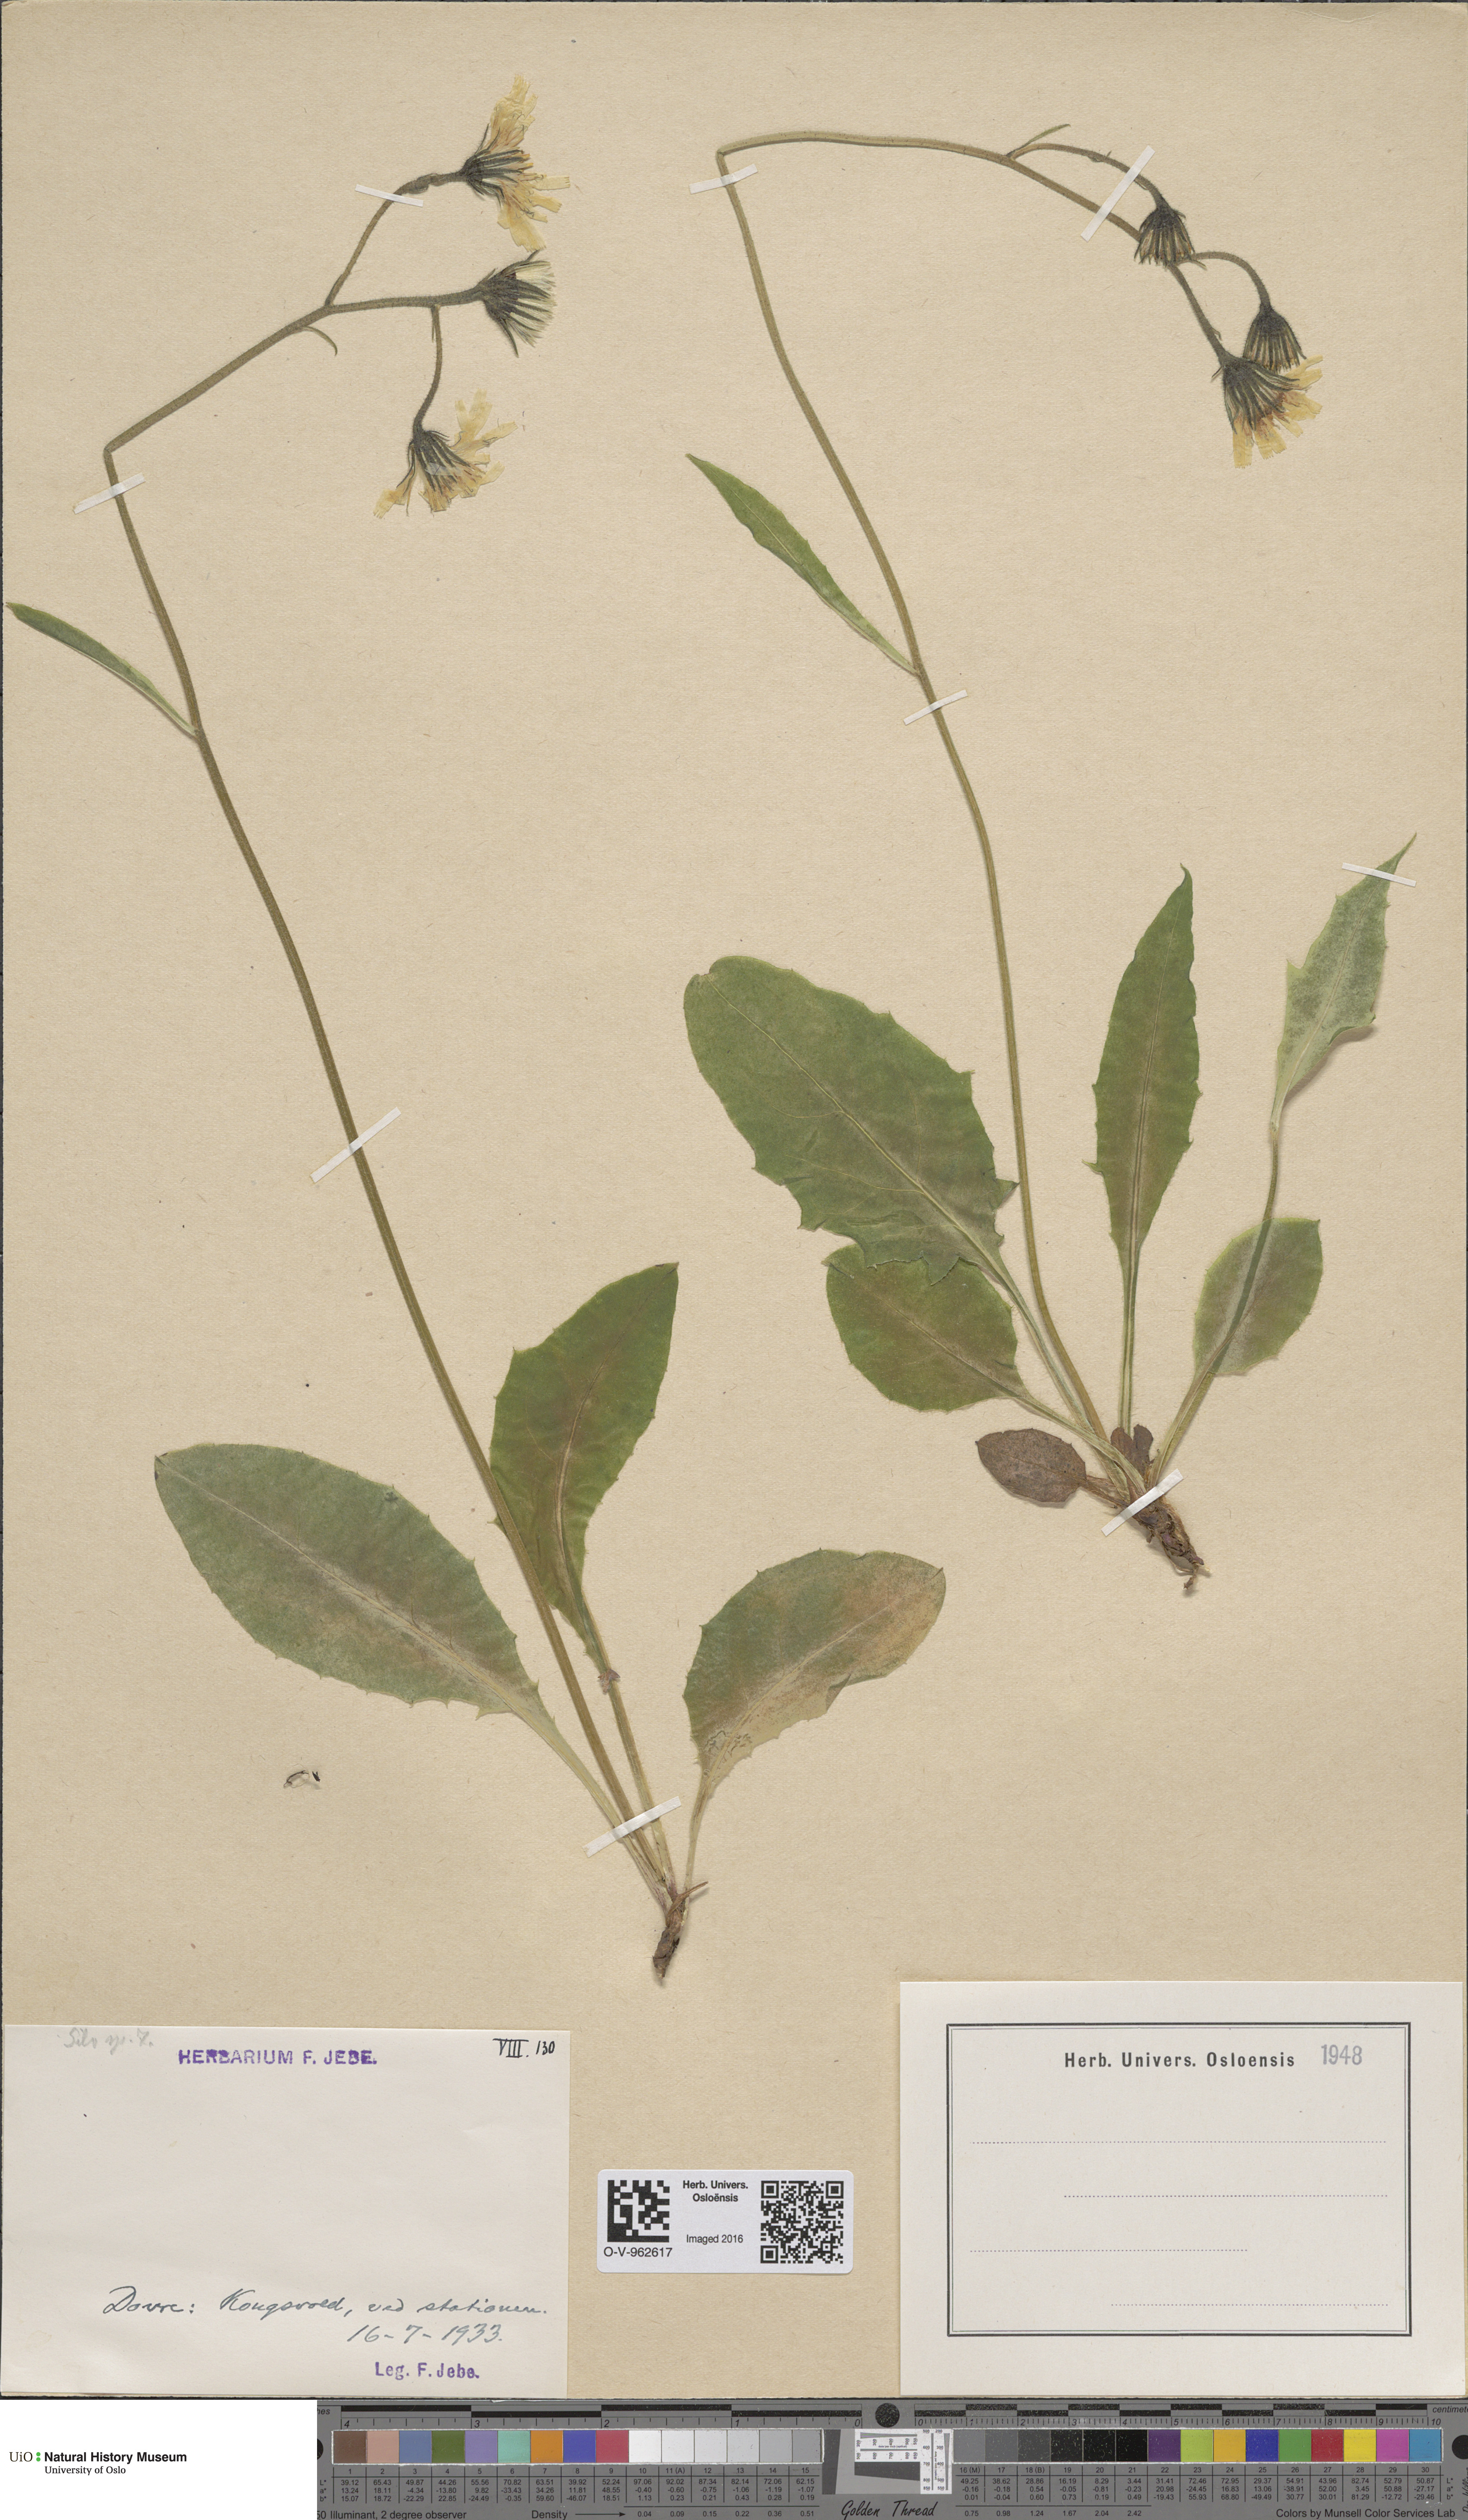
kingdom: Plantae
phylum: Tracheophyta
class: Magnoliopsida
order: Asterales
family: Asteraceae
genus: Hieracium
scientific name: Hieracium
